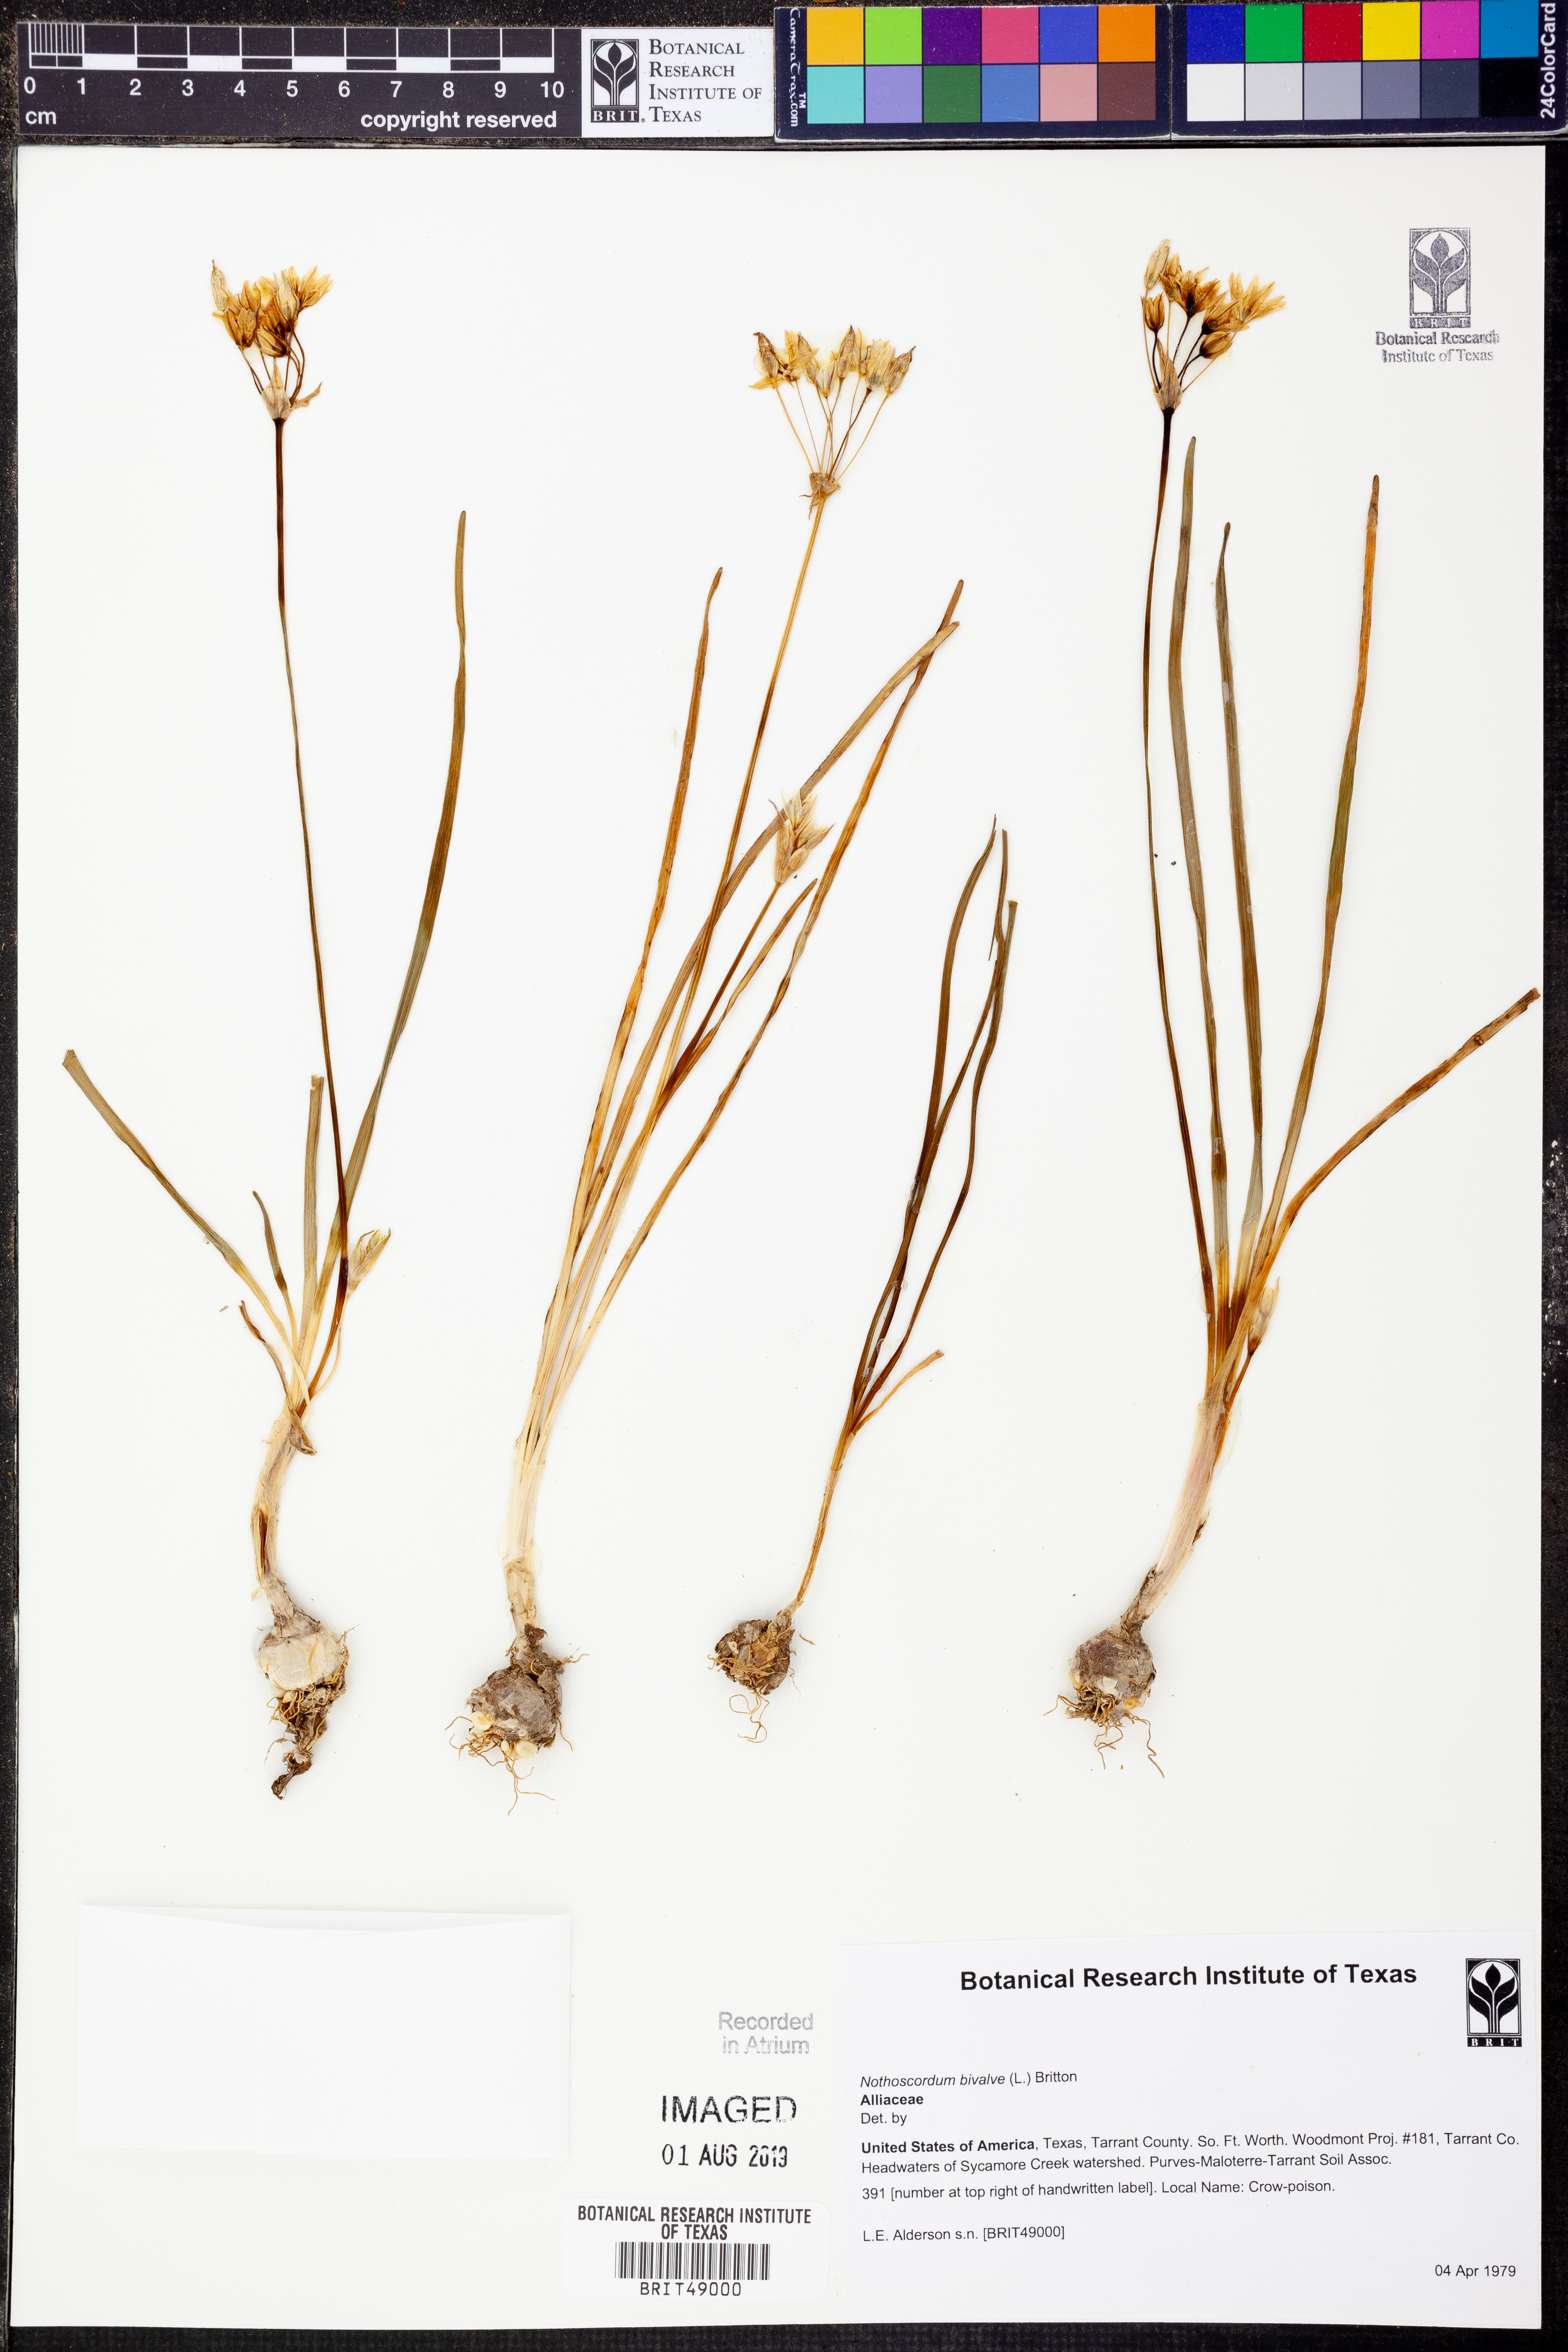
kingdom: Plantae
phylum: Tracheophyta
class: Liliopsida
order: Asparagales
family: Amaryllidaceae
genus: Nothoscordum
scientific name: Nothoscordum bivalve
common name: Crow-poison
